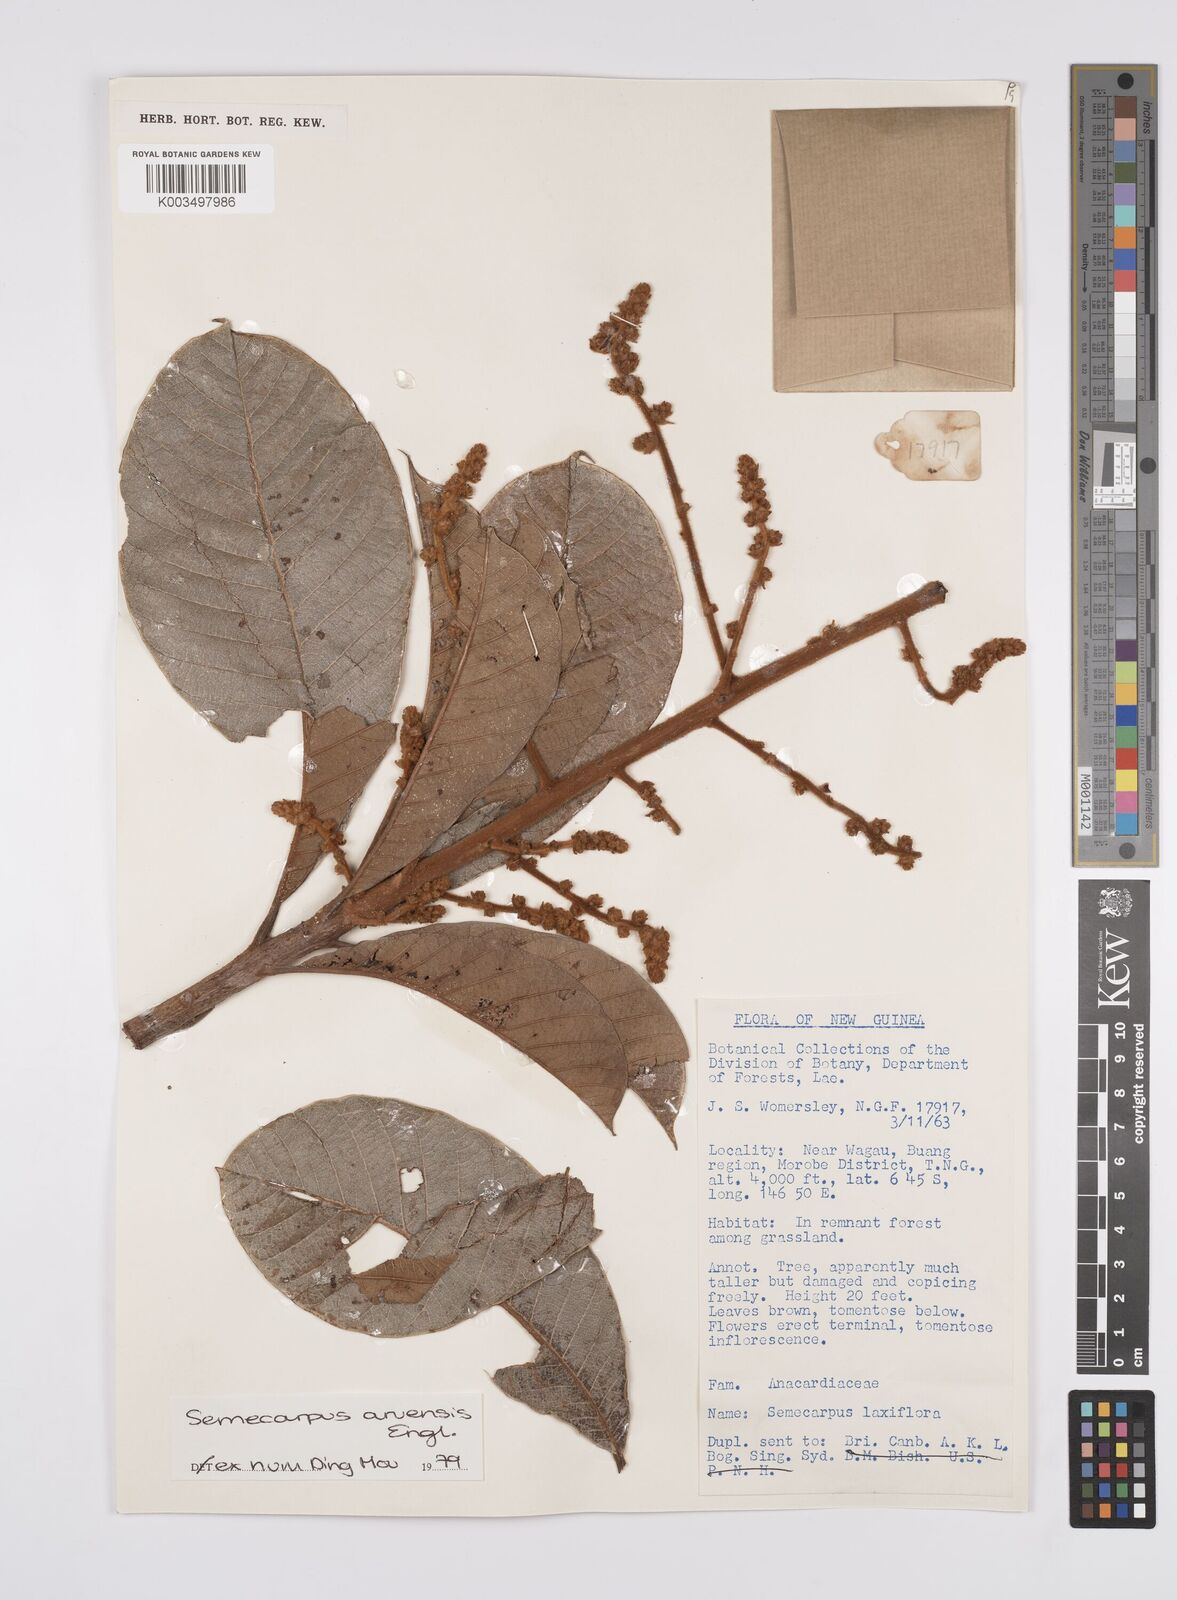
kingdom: Plantae
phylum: Tracheophyta
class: Magnoliopsida
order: Sapindales
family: Anacardiaceae
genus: Semecarpus
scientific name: Semecarpus aruensis
